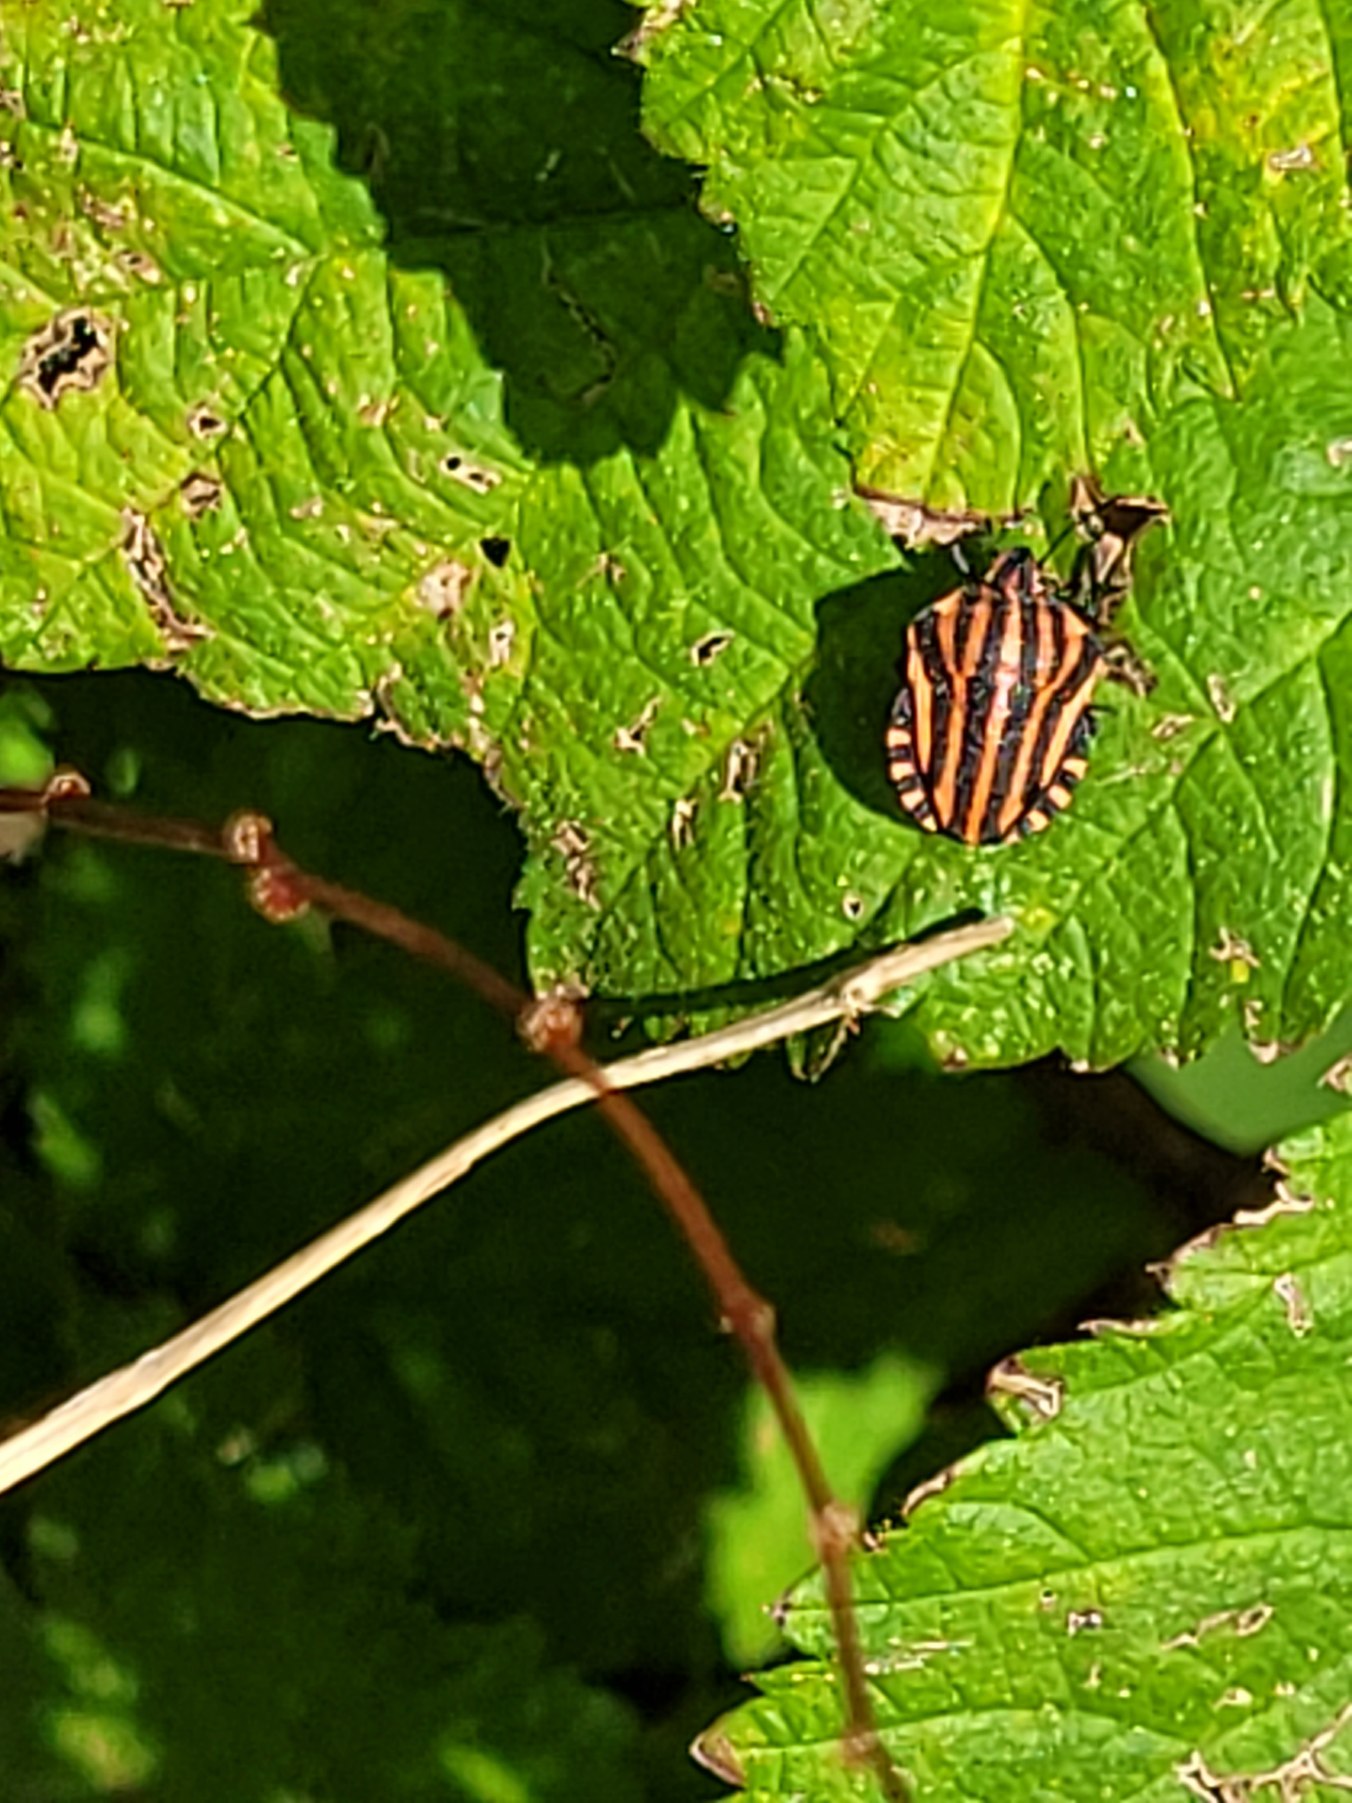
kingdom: Animalia
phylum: Arthropoda
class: Insecta
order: Hemiptera
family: Pentatomidae
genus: Graphosoma
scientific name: Graphosoma italicum
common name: Stribetæge
